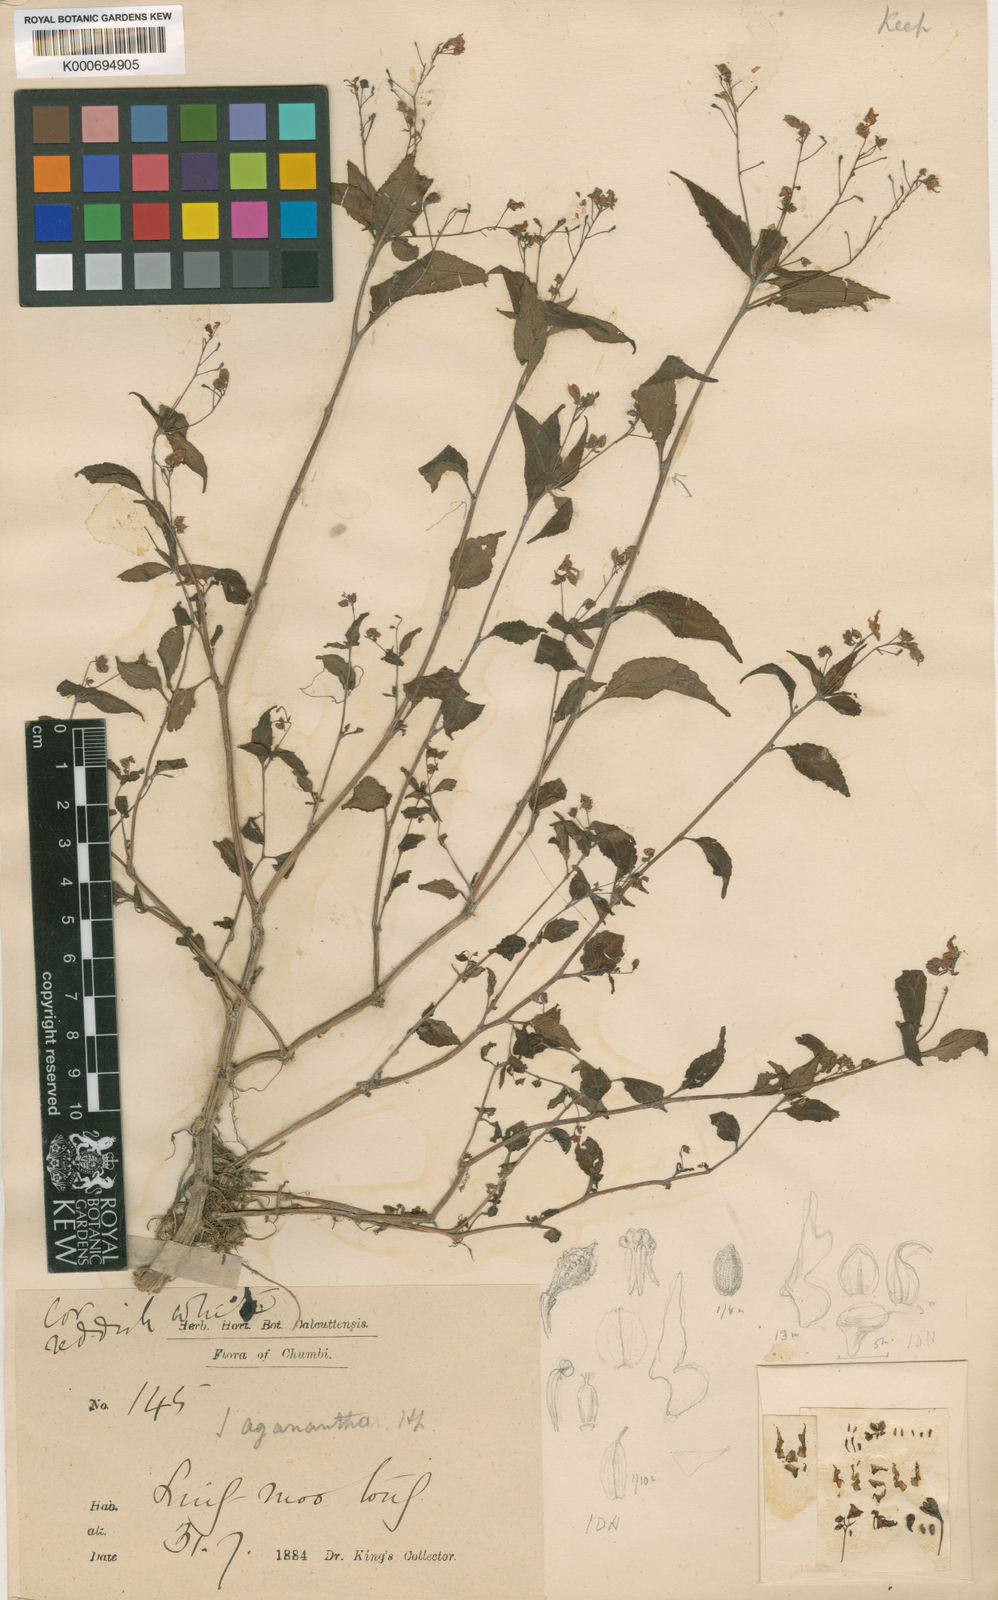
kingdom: Plantae
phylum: Tracheophyta
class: Magnoliopsida
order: Ericales
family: Balsaminaceae
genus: Impatiens
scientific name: Impatiens tuberculata
